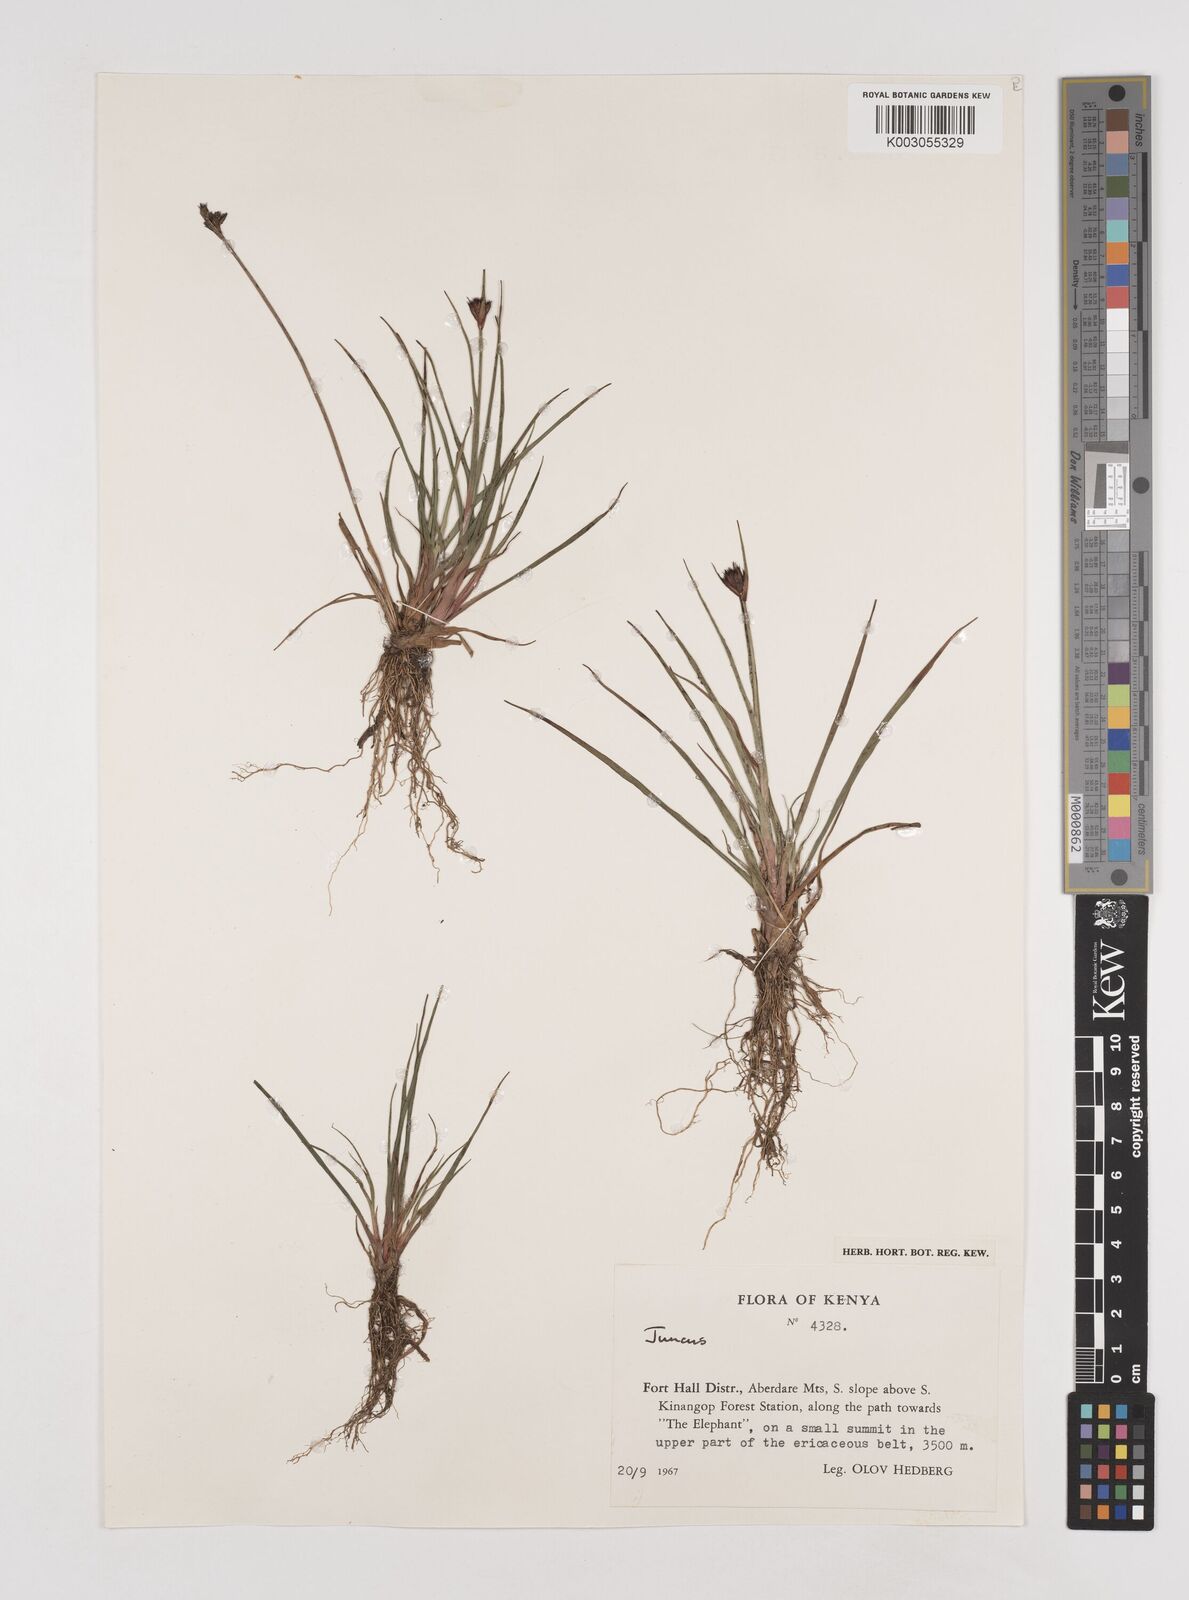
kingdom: Plantae
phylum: Tracheophyta
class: Liliopsida
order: Poales
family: Juncaceae
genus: Juncus
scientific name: Juncus dregeanus
